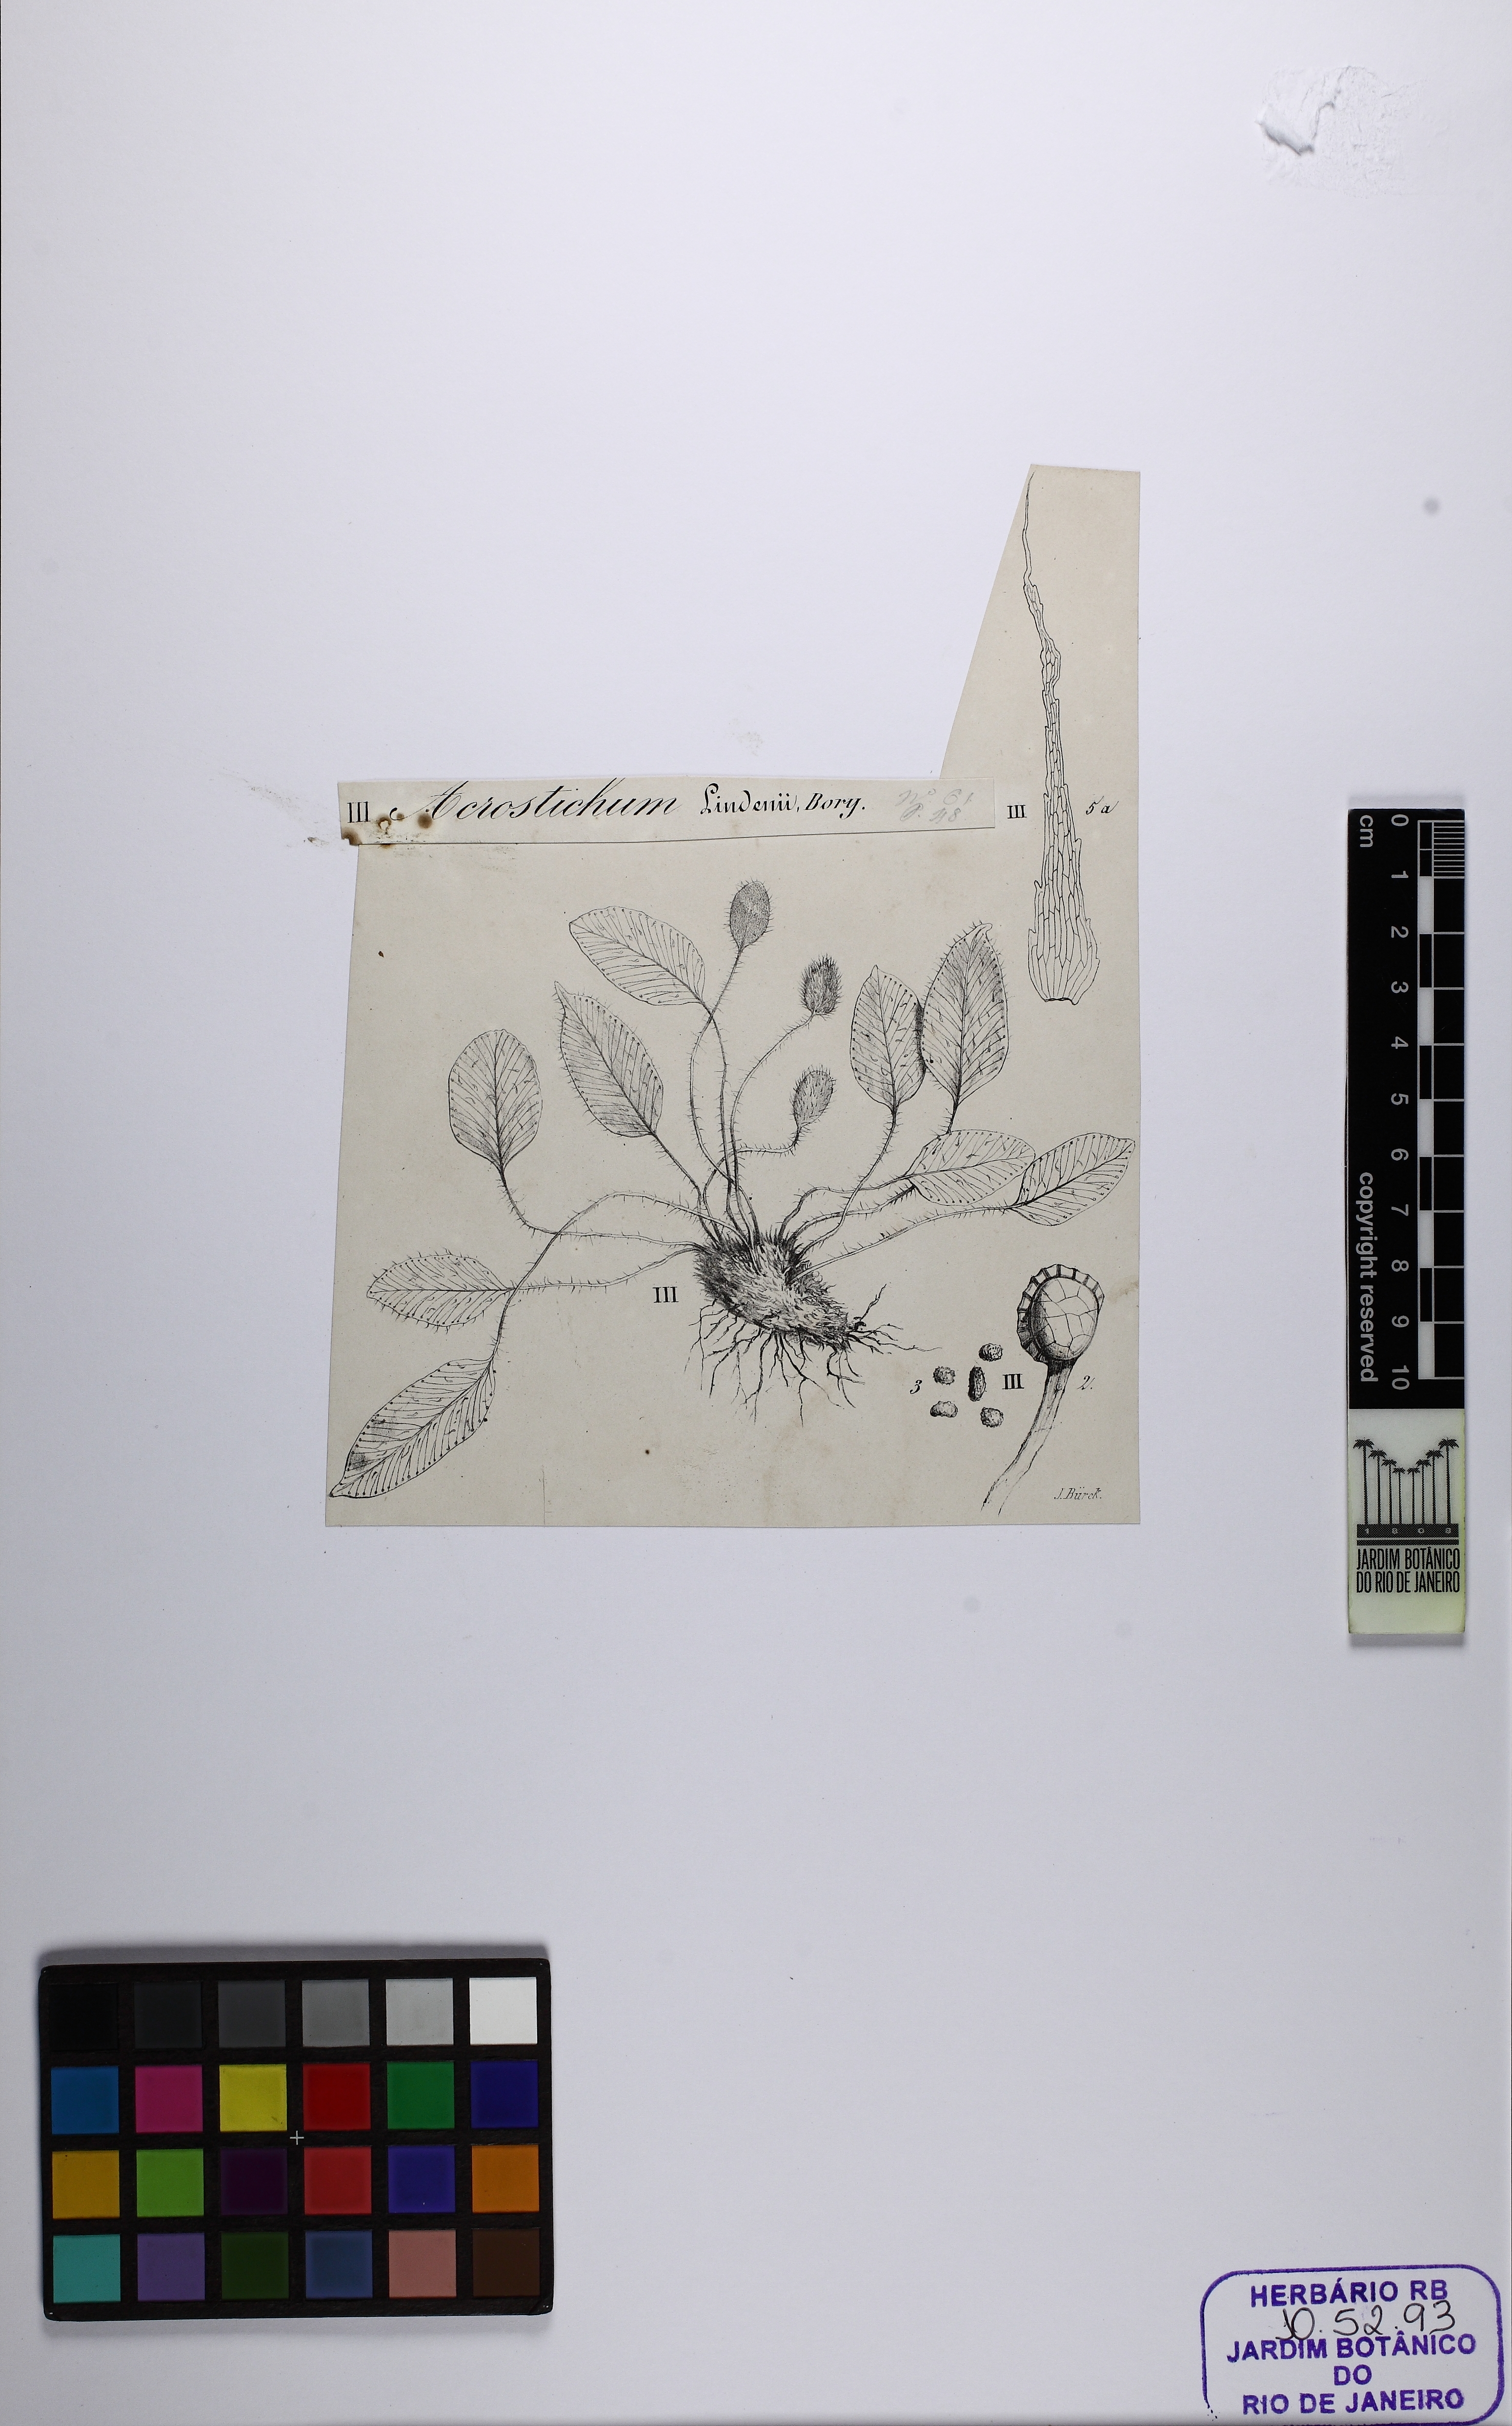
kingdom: Plantae
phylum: Tracheophyta
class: Polypodiopsida
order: Polypodiales
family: Dryopteridaceae
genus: Elaphoglossum
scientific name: Elaphoglossum lindenii
